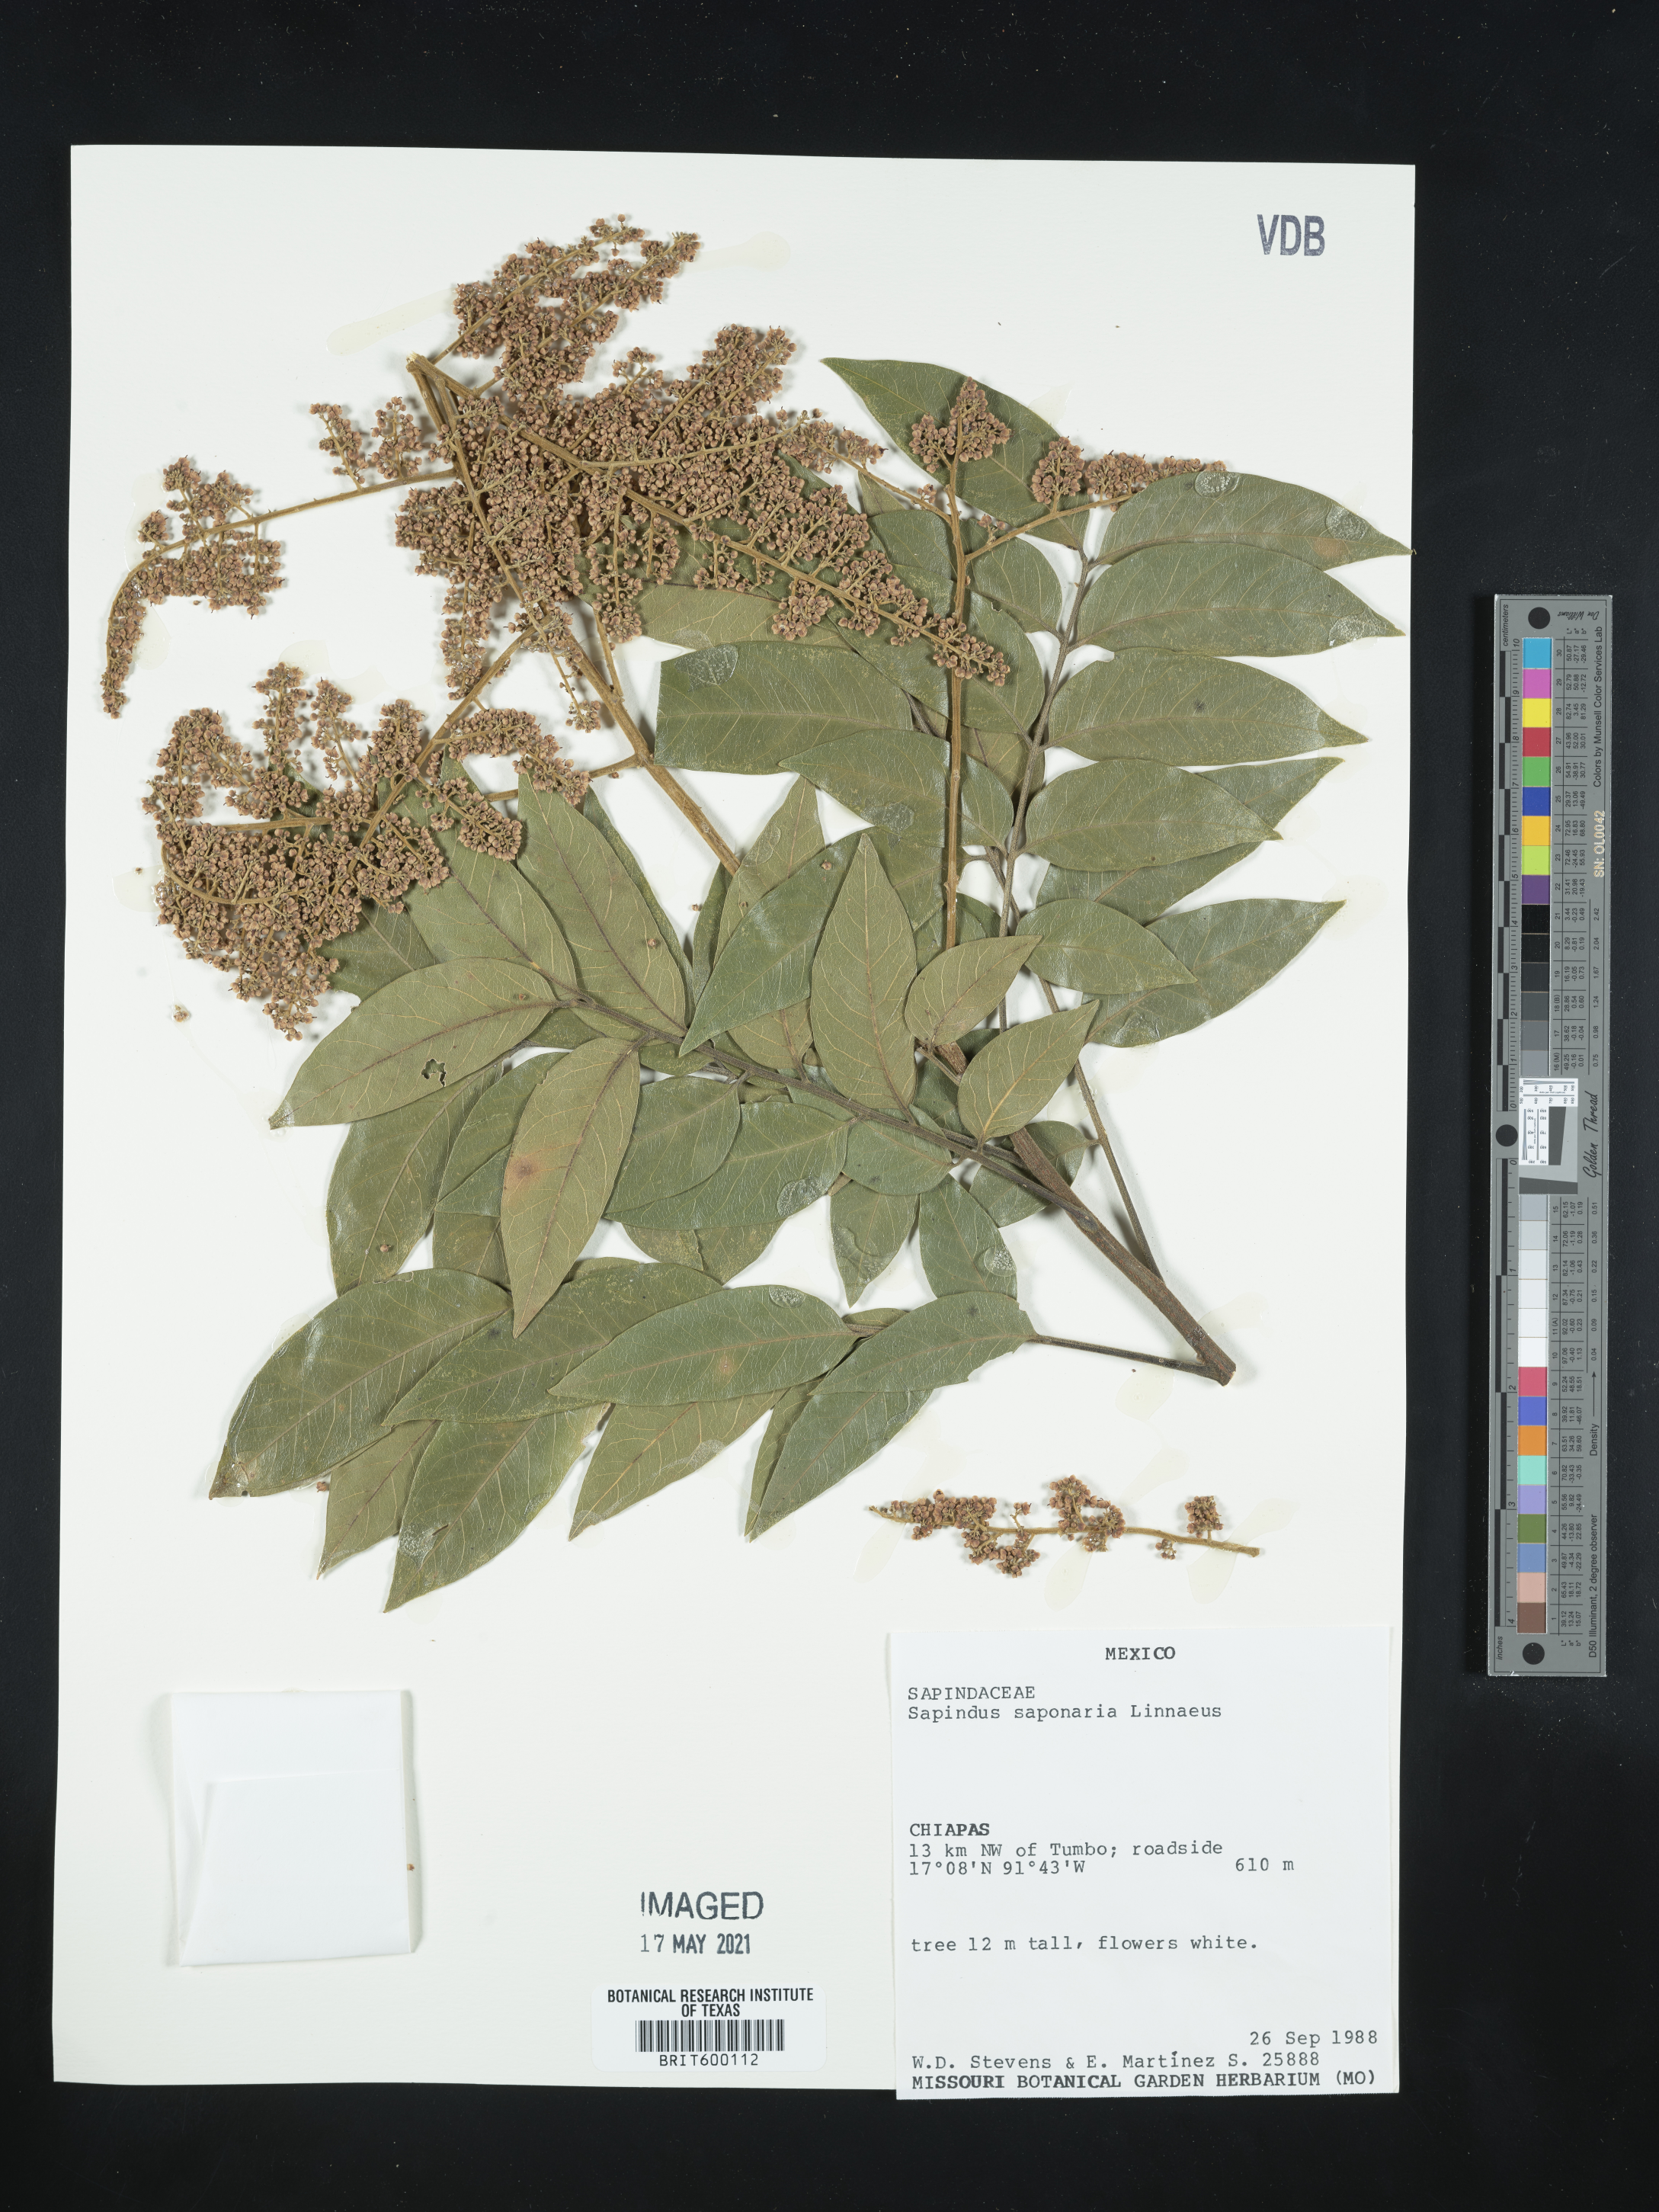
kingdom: Plantae
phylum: Tracheophyta
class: Magnoliopsida
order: Sapindales
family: Sapindaceae
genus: Sapindus
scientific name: Sapindus saponaria
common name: Wingleaf soapberry
